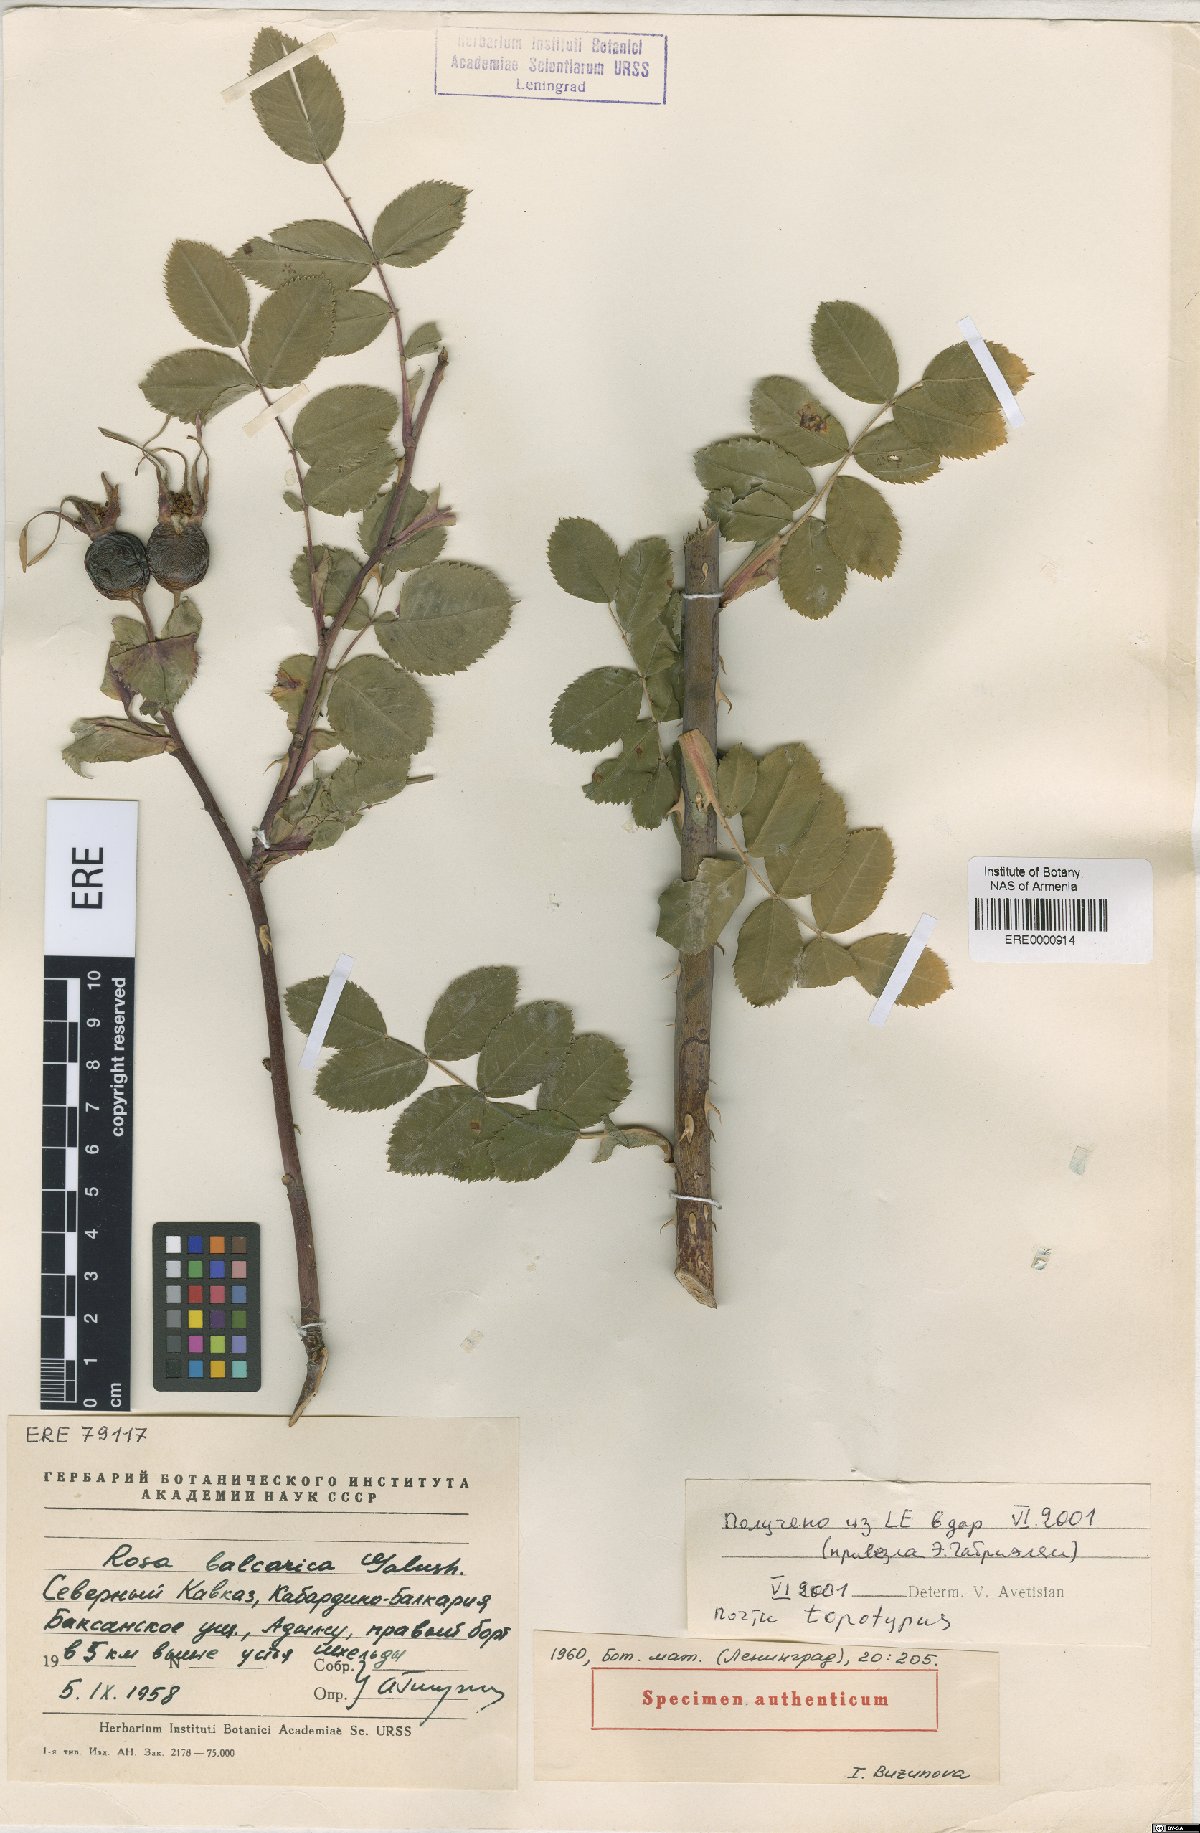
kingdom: Plantae
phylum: Tracheophyta
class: Magnoliopsida
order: Rosales
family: Rosaceae
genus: Rosa
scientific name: Rosa balcarica
